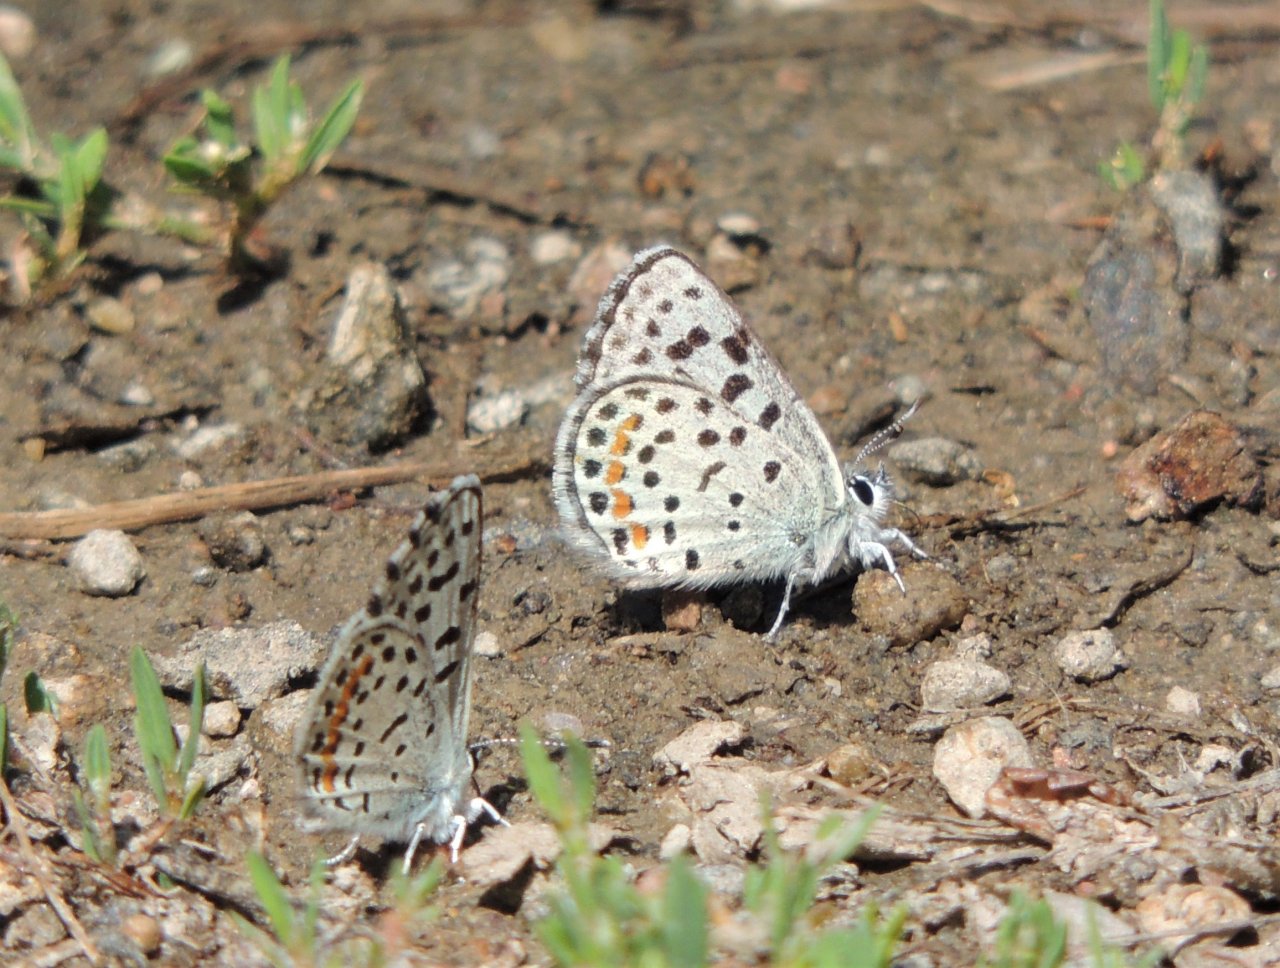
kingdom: Animalia
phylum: Arthropoda
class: Insecta
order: Lepidoptera
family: Lycaenidae
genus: Euphilotes
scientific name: Euphilotes
